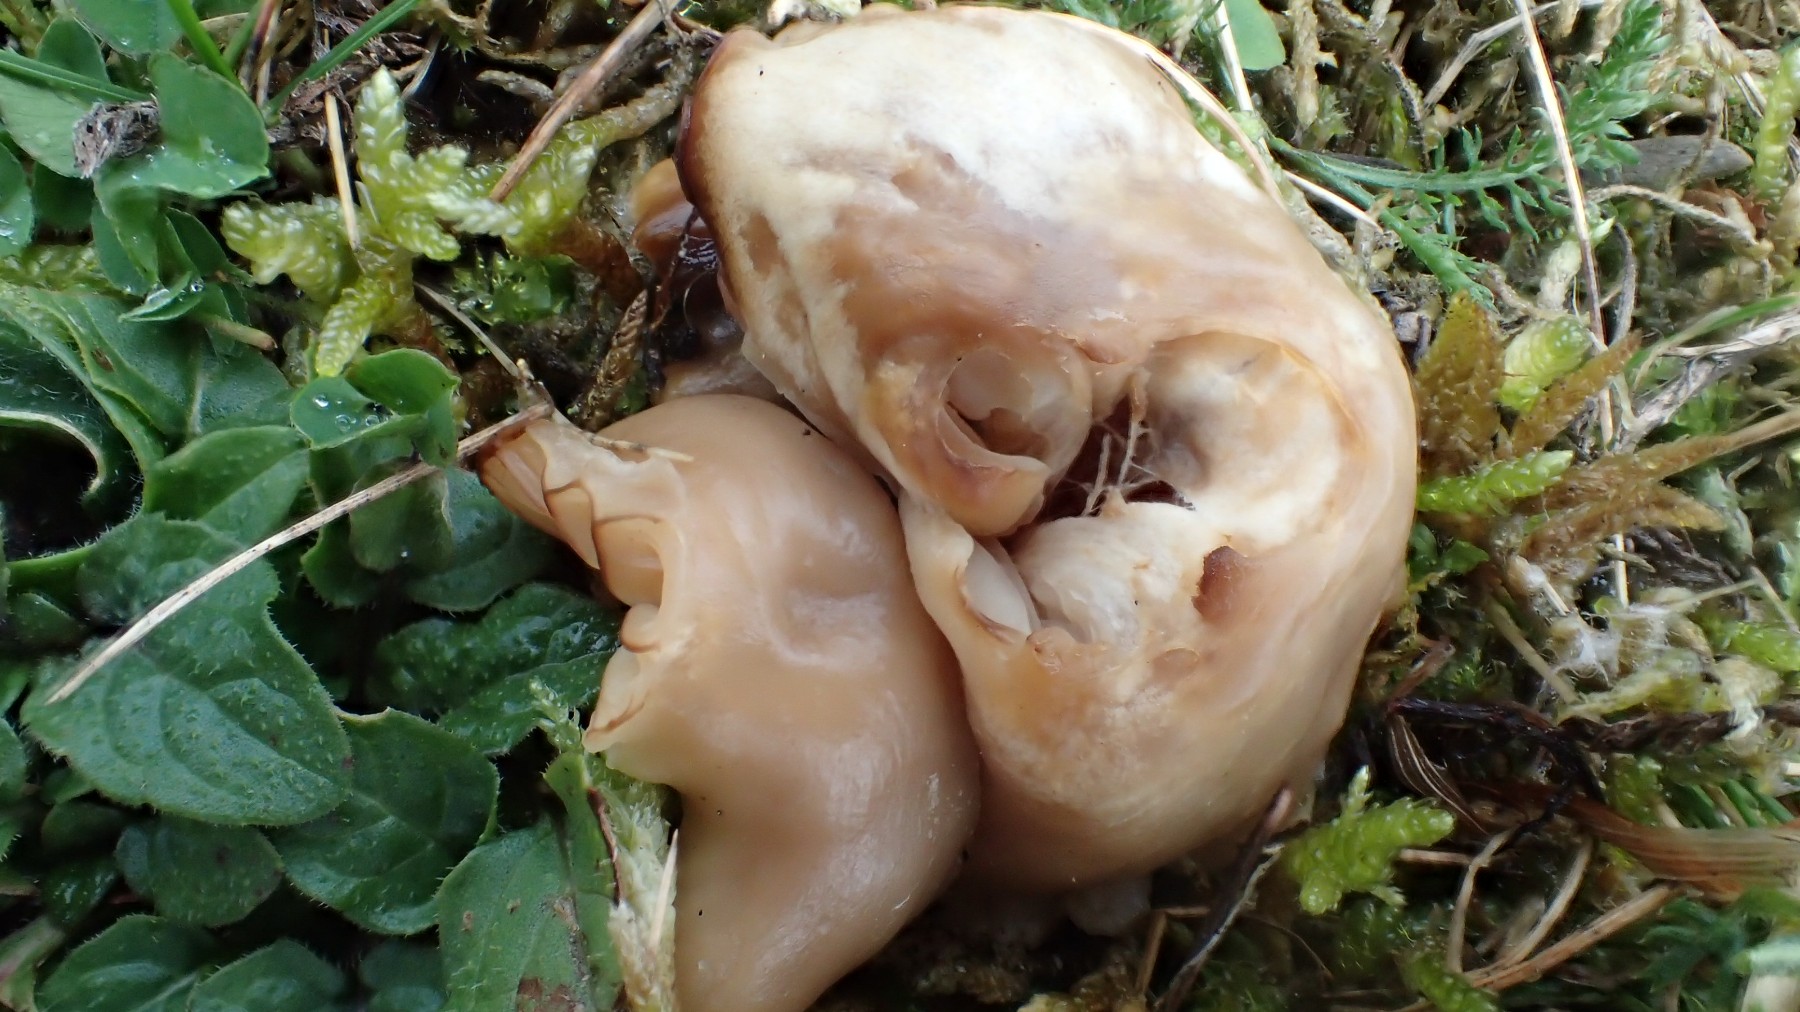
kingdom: Fungi
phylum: Basidiomycota
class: Agaricomycetes
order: Agaricales
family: Hygrophoraceae
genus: Cuphophyllus
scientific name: Cuphophyllus virgineus
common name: isabella-vokshat
